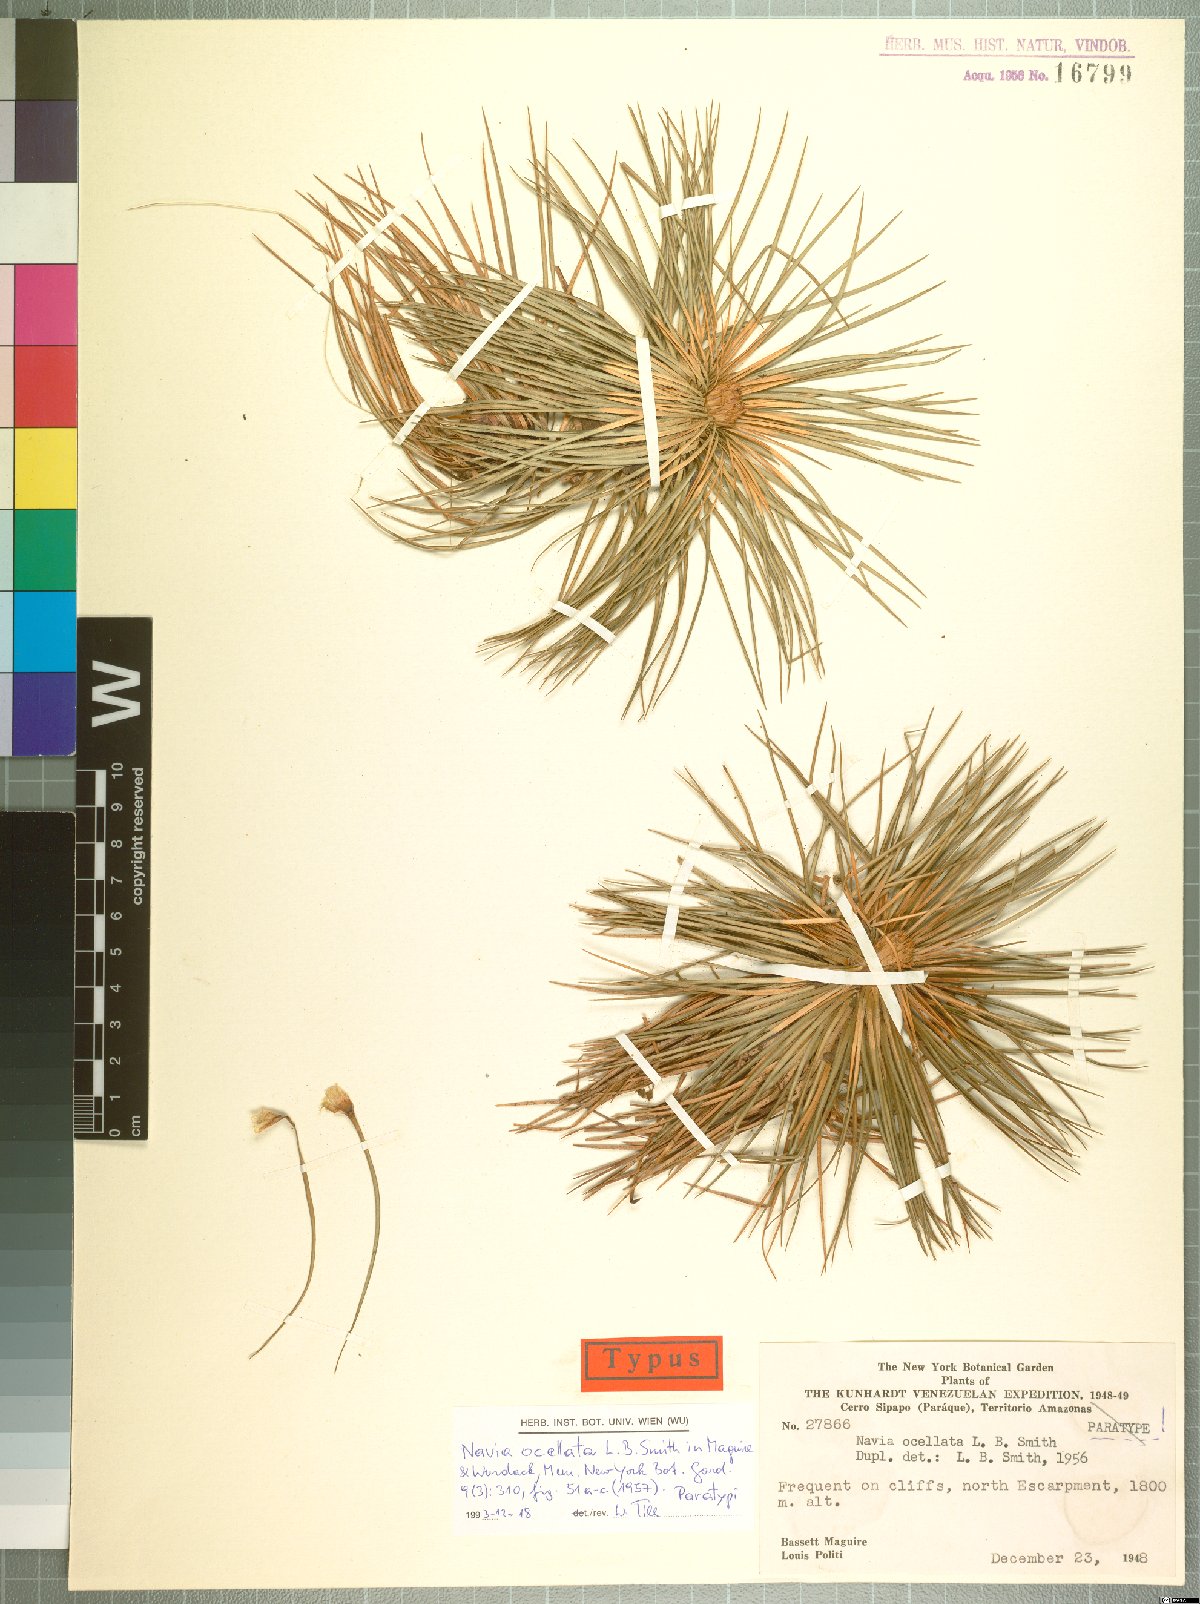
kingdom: Plantae
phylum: Tracheophyta
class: Liliopsida
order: Poales
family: Bromeliaceae
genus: Navia
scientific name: Navia ocellata
